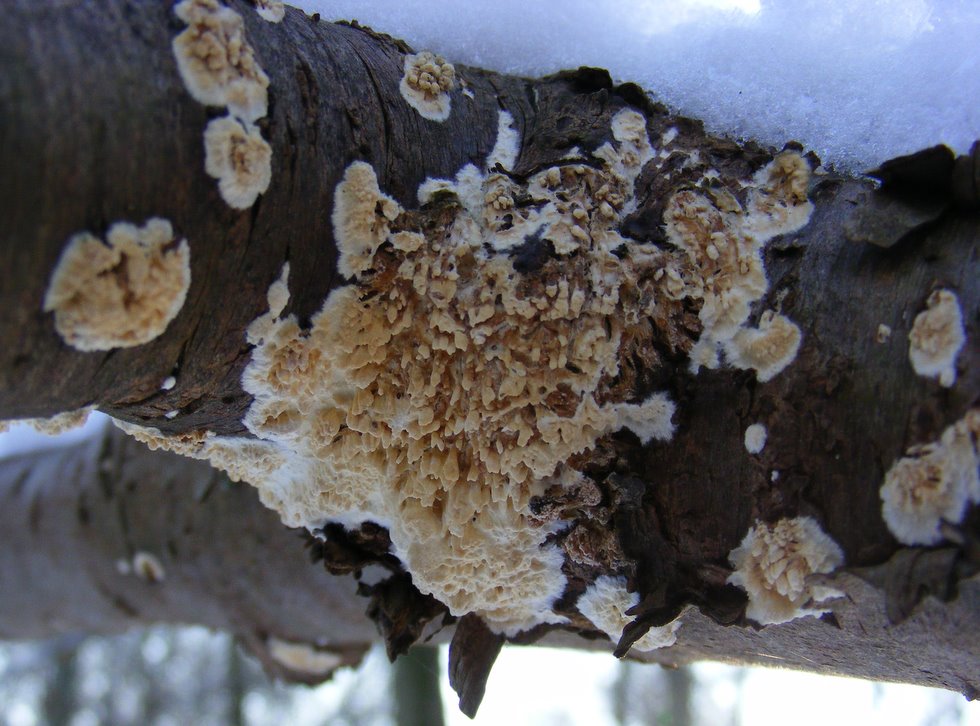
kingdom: Fungi
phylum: Basidiomycota
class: Agaricomycetes
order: Hymenochaetales
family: Schizoporaceae
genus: Xylodon
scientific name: Xylodon radula
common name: grovtandet kalkskind
